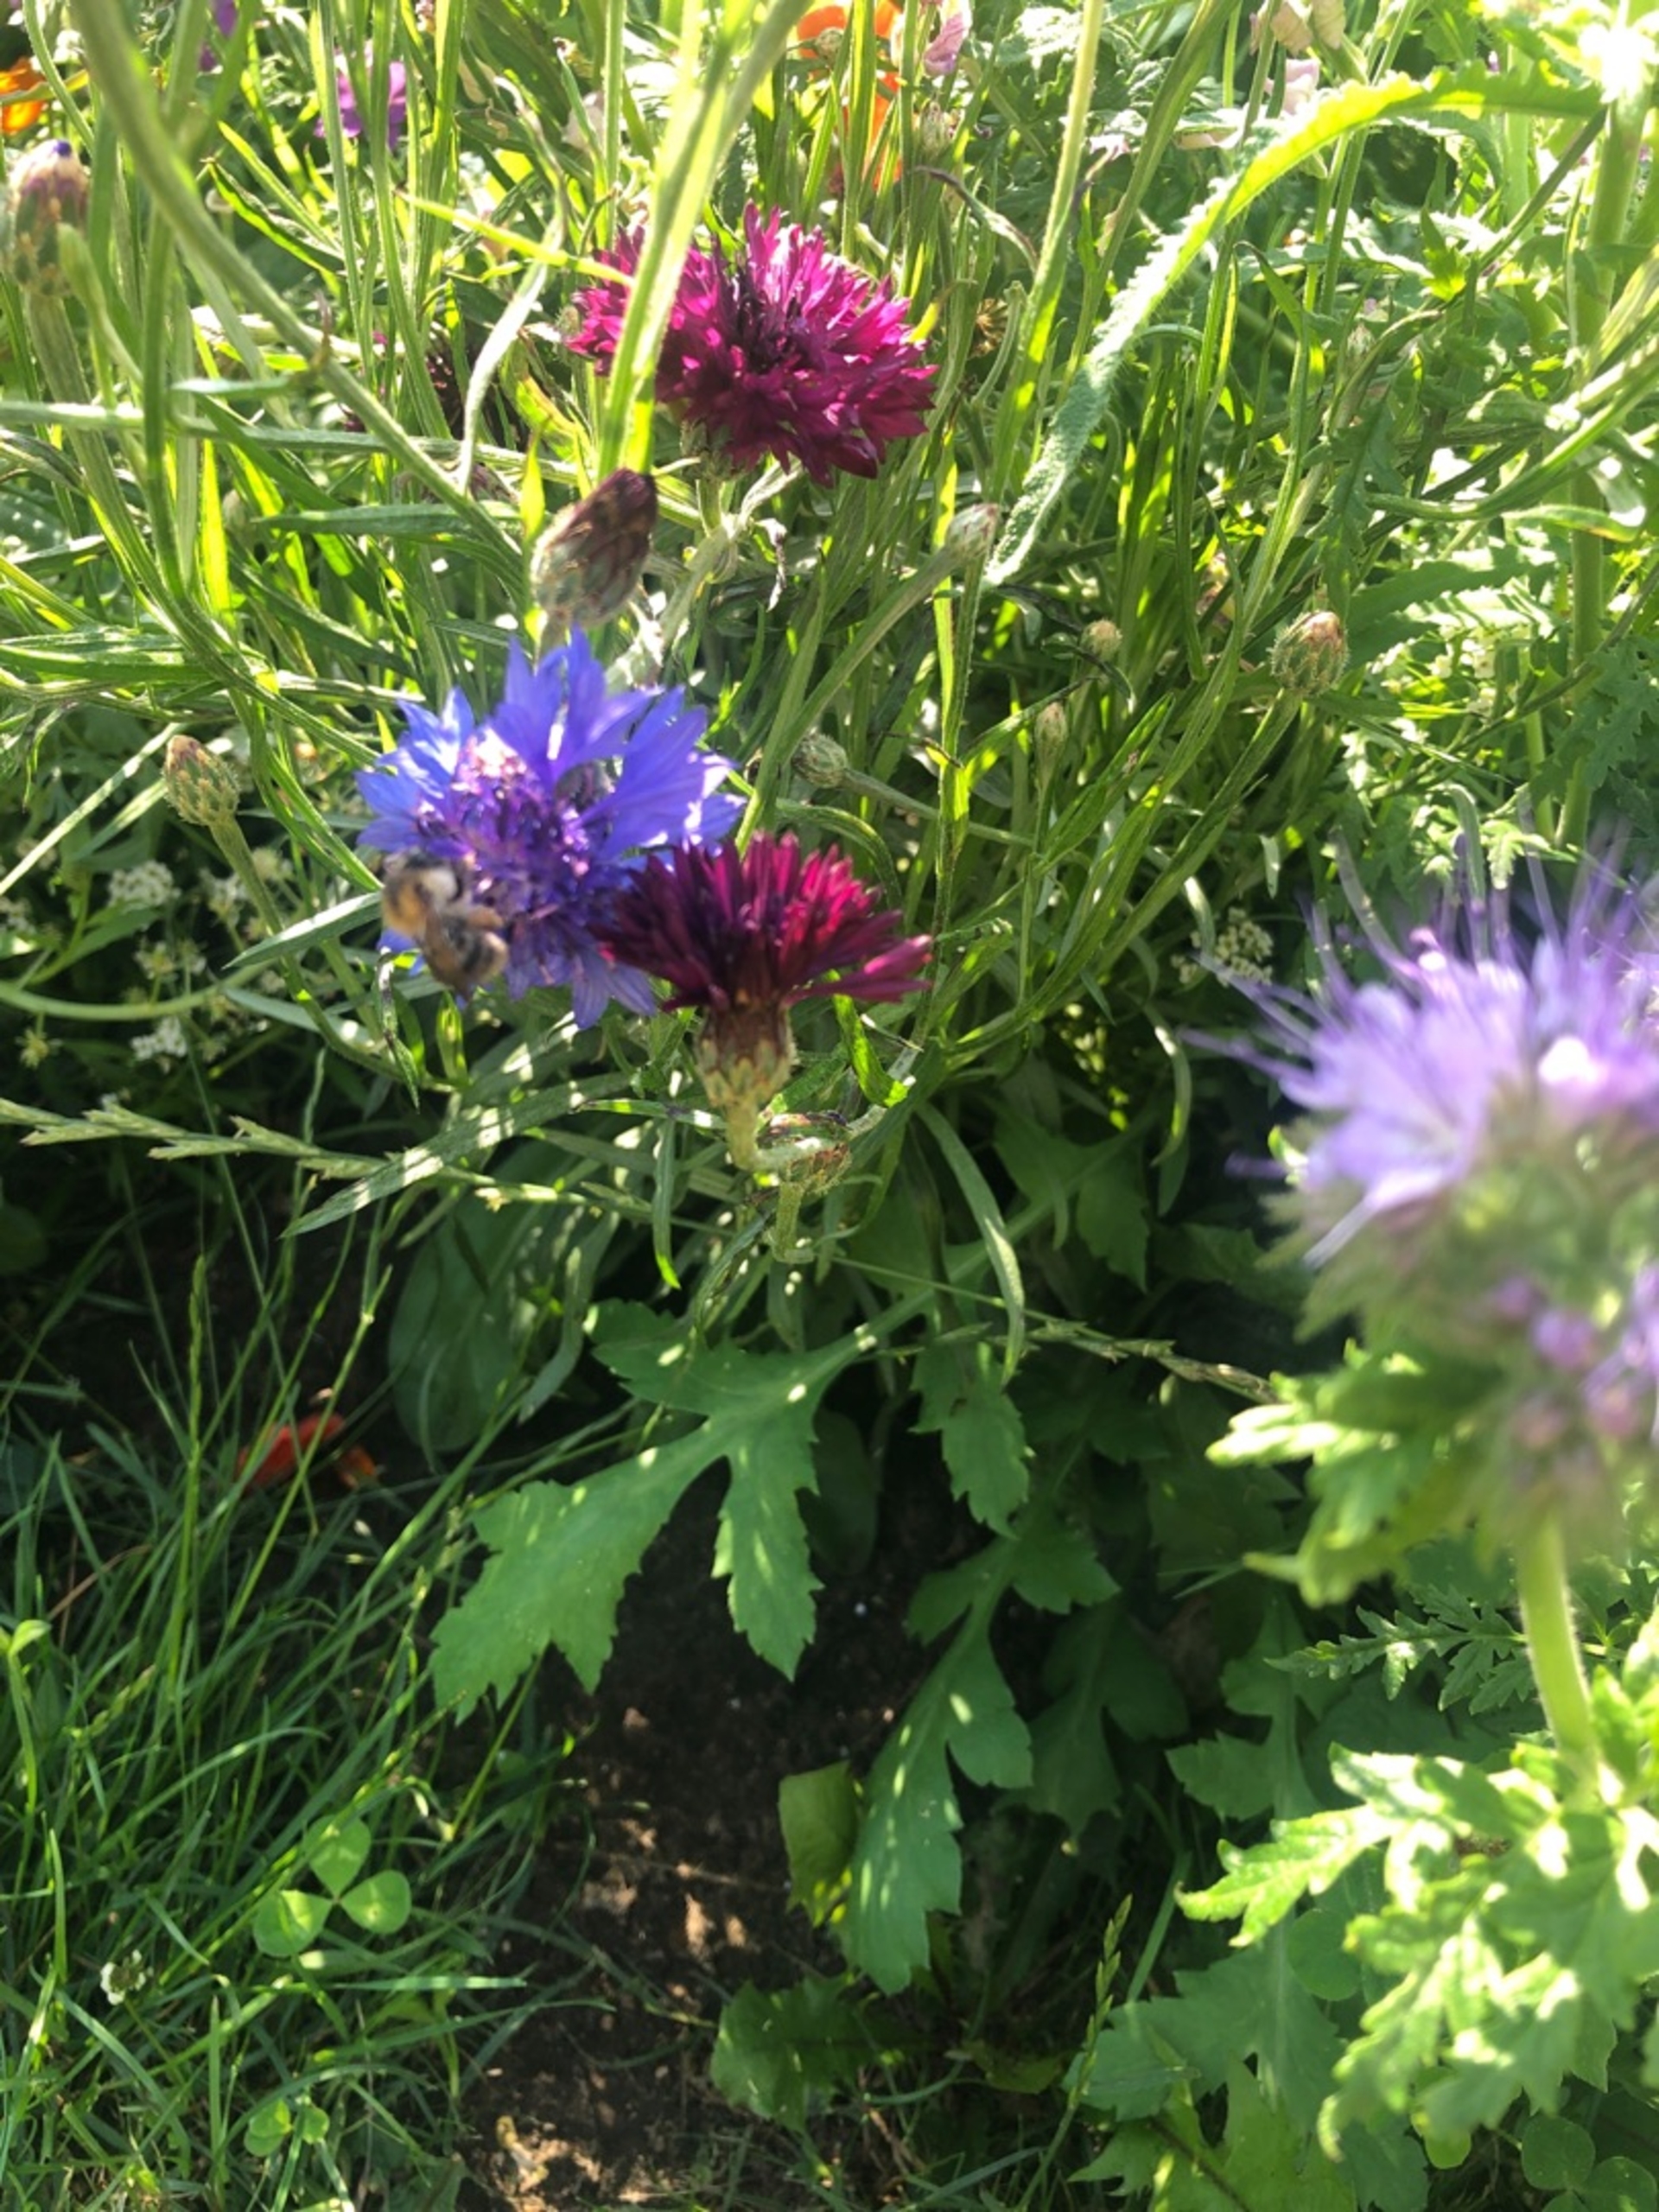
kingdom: Animalia
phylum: Arthropoda
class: Insecta
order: Hymenoptera
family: Apidae
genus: Bombus
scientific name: Bombus pascuorum
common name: Agerhumle
